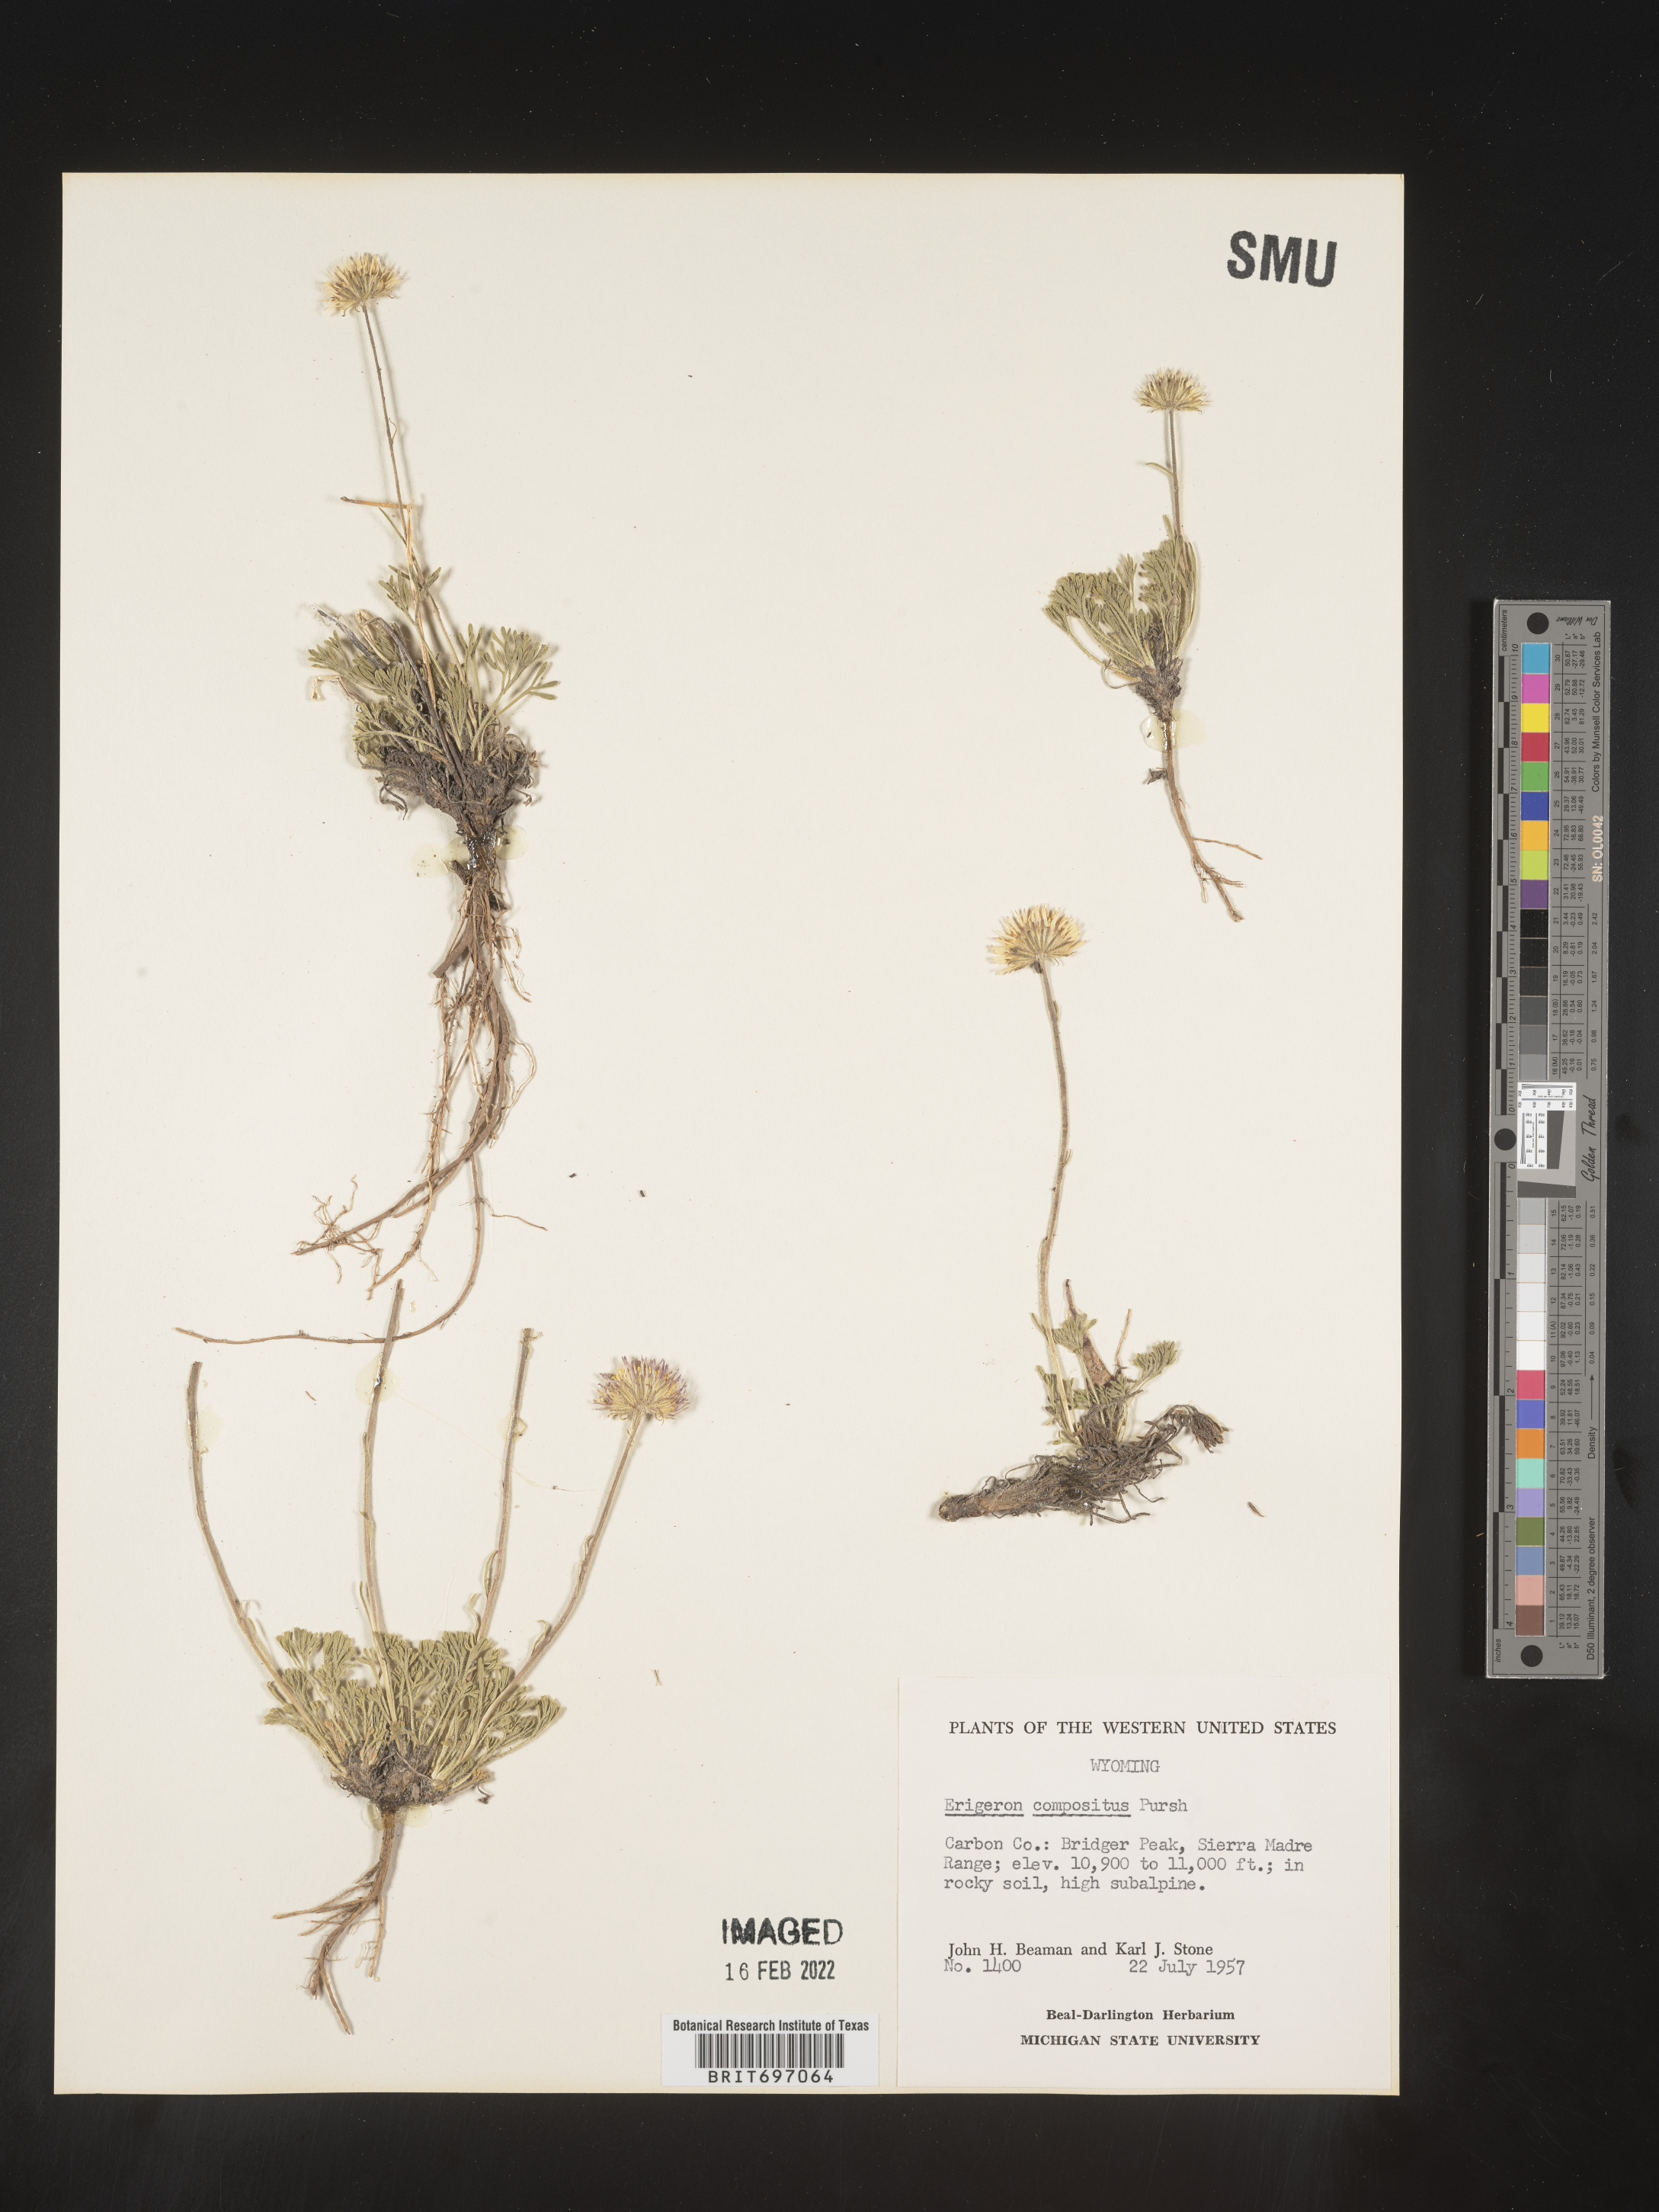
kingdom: Plantae
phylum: Tracheophyta
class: Magnoliopsida
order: Asterales
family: Asteraceae
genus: Erigeron
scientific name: Erigeron compositus
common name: Dwarf mountain fleabane
